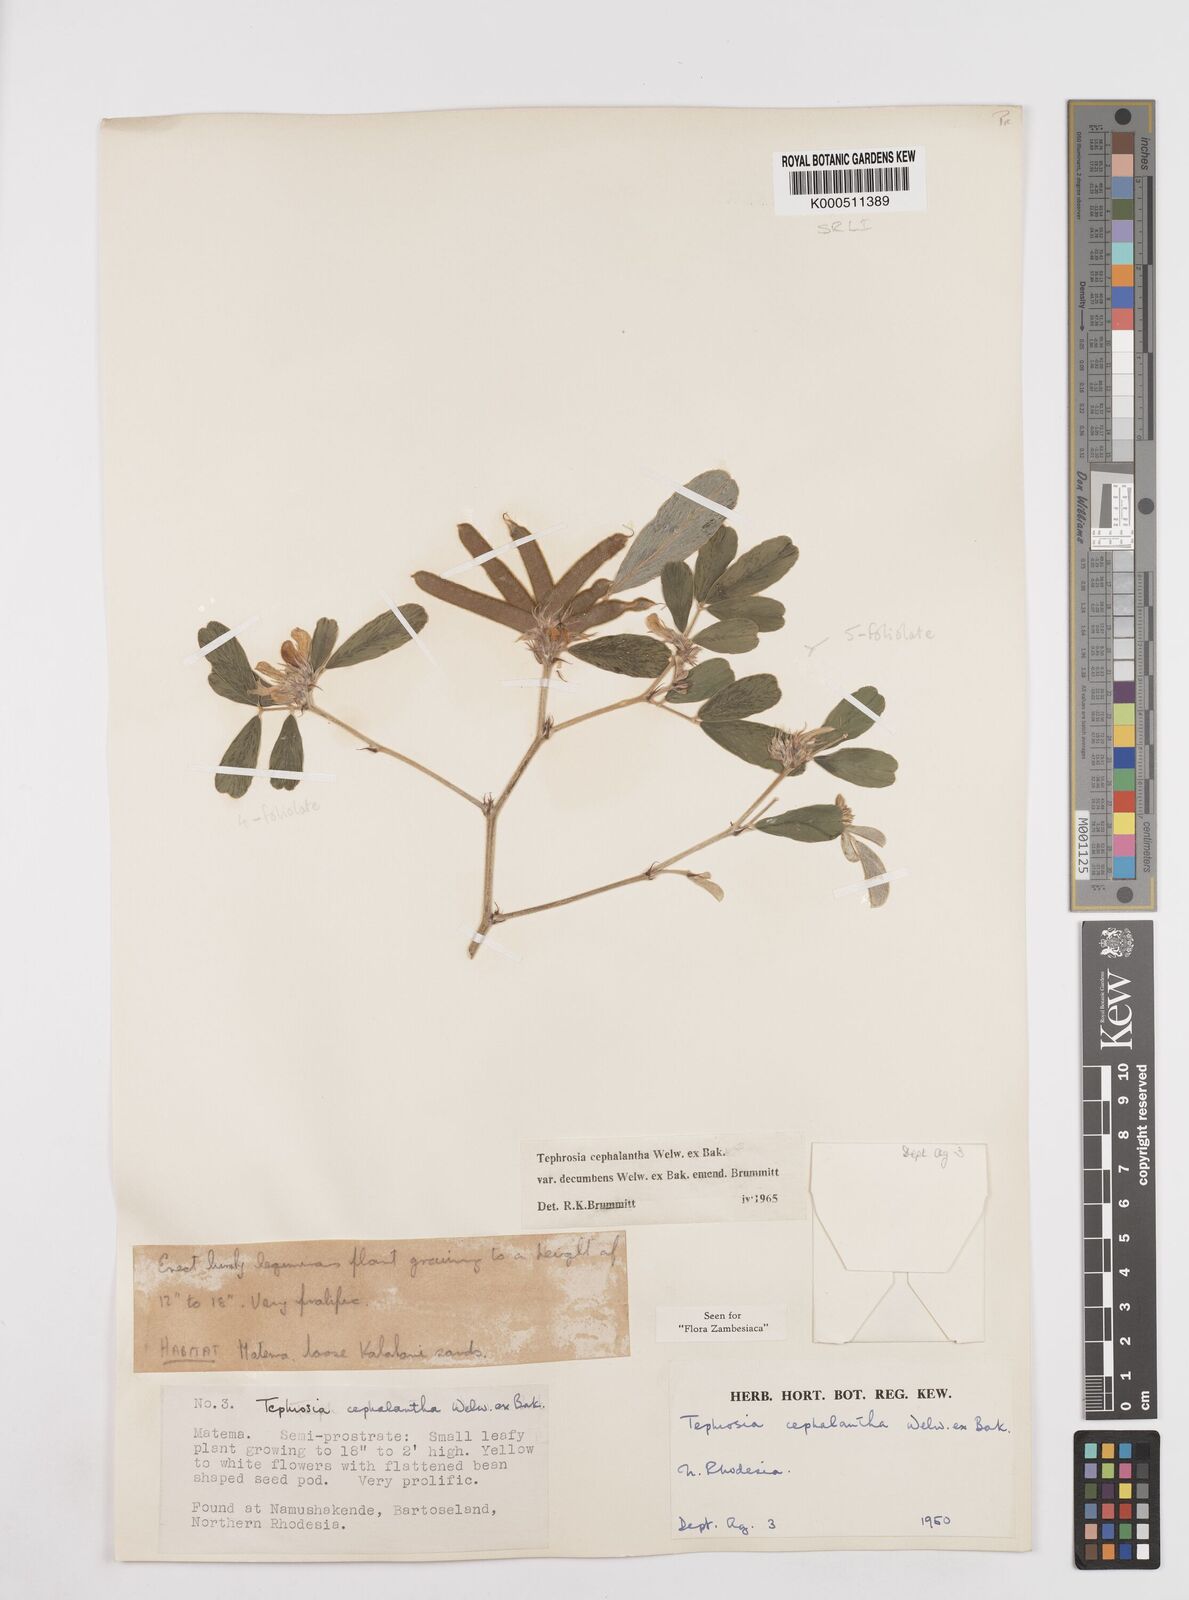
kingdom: Plantae
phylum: Tracheophyta
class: Magnoliopsida
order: Fabales
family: Fabaceae
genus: Tephrosia
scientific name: Tephrosia
